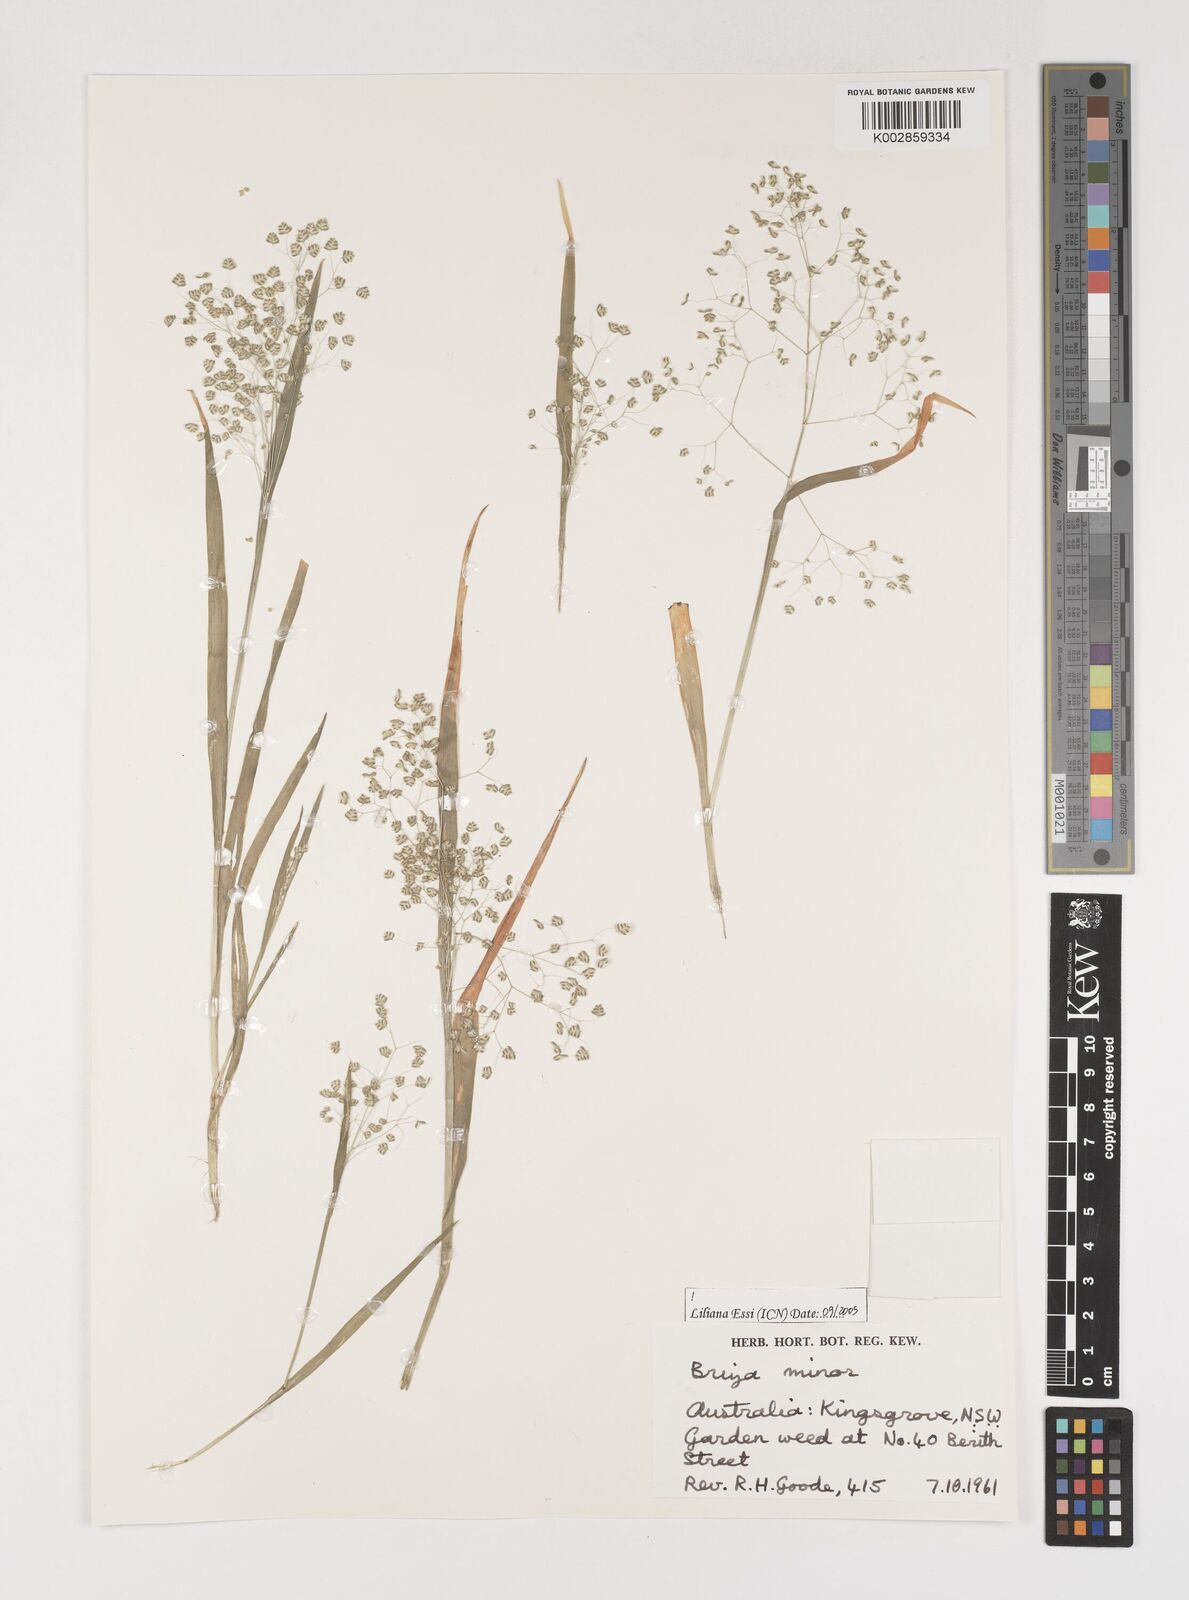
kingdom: Plantae
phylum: Tracheophyta
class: Liliopsida
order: Poales
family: Poaceae
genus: Briza
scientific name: Briza minor
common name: Lesser quaking-grass
